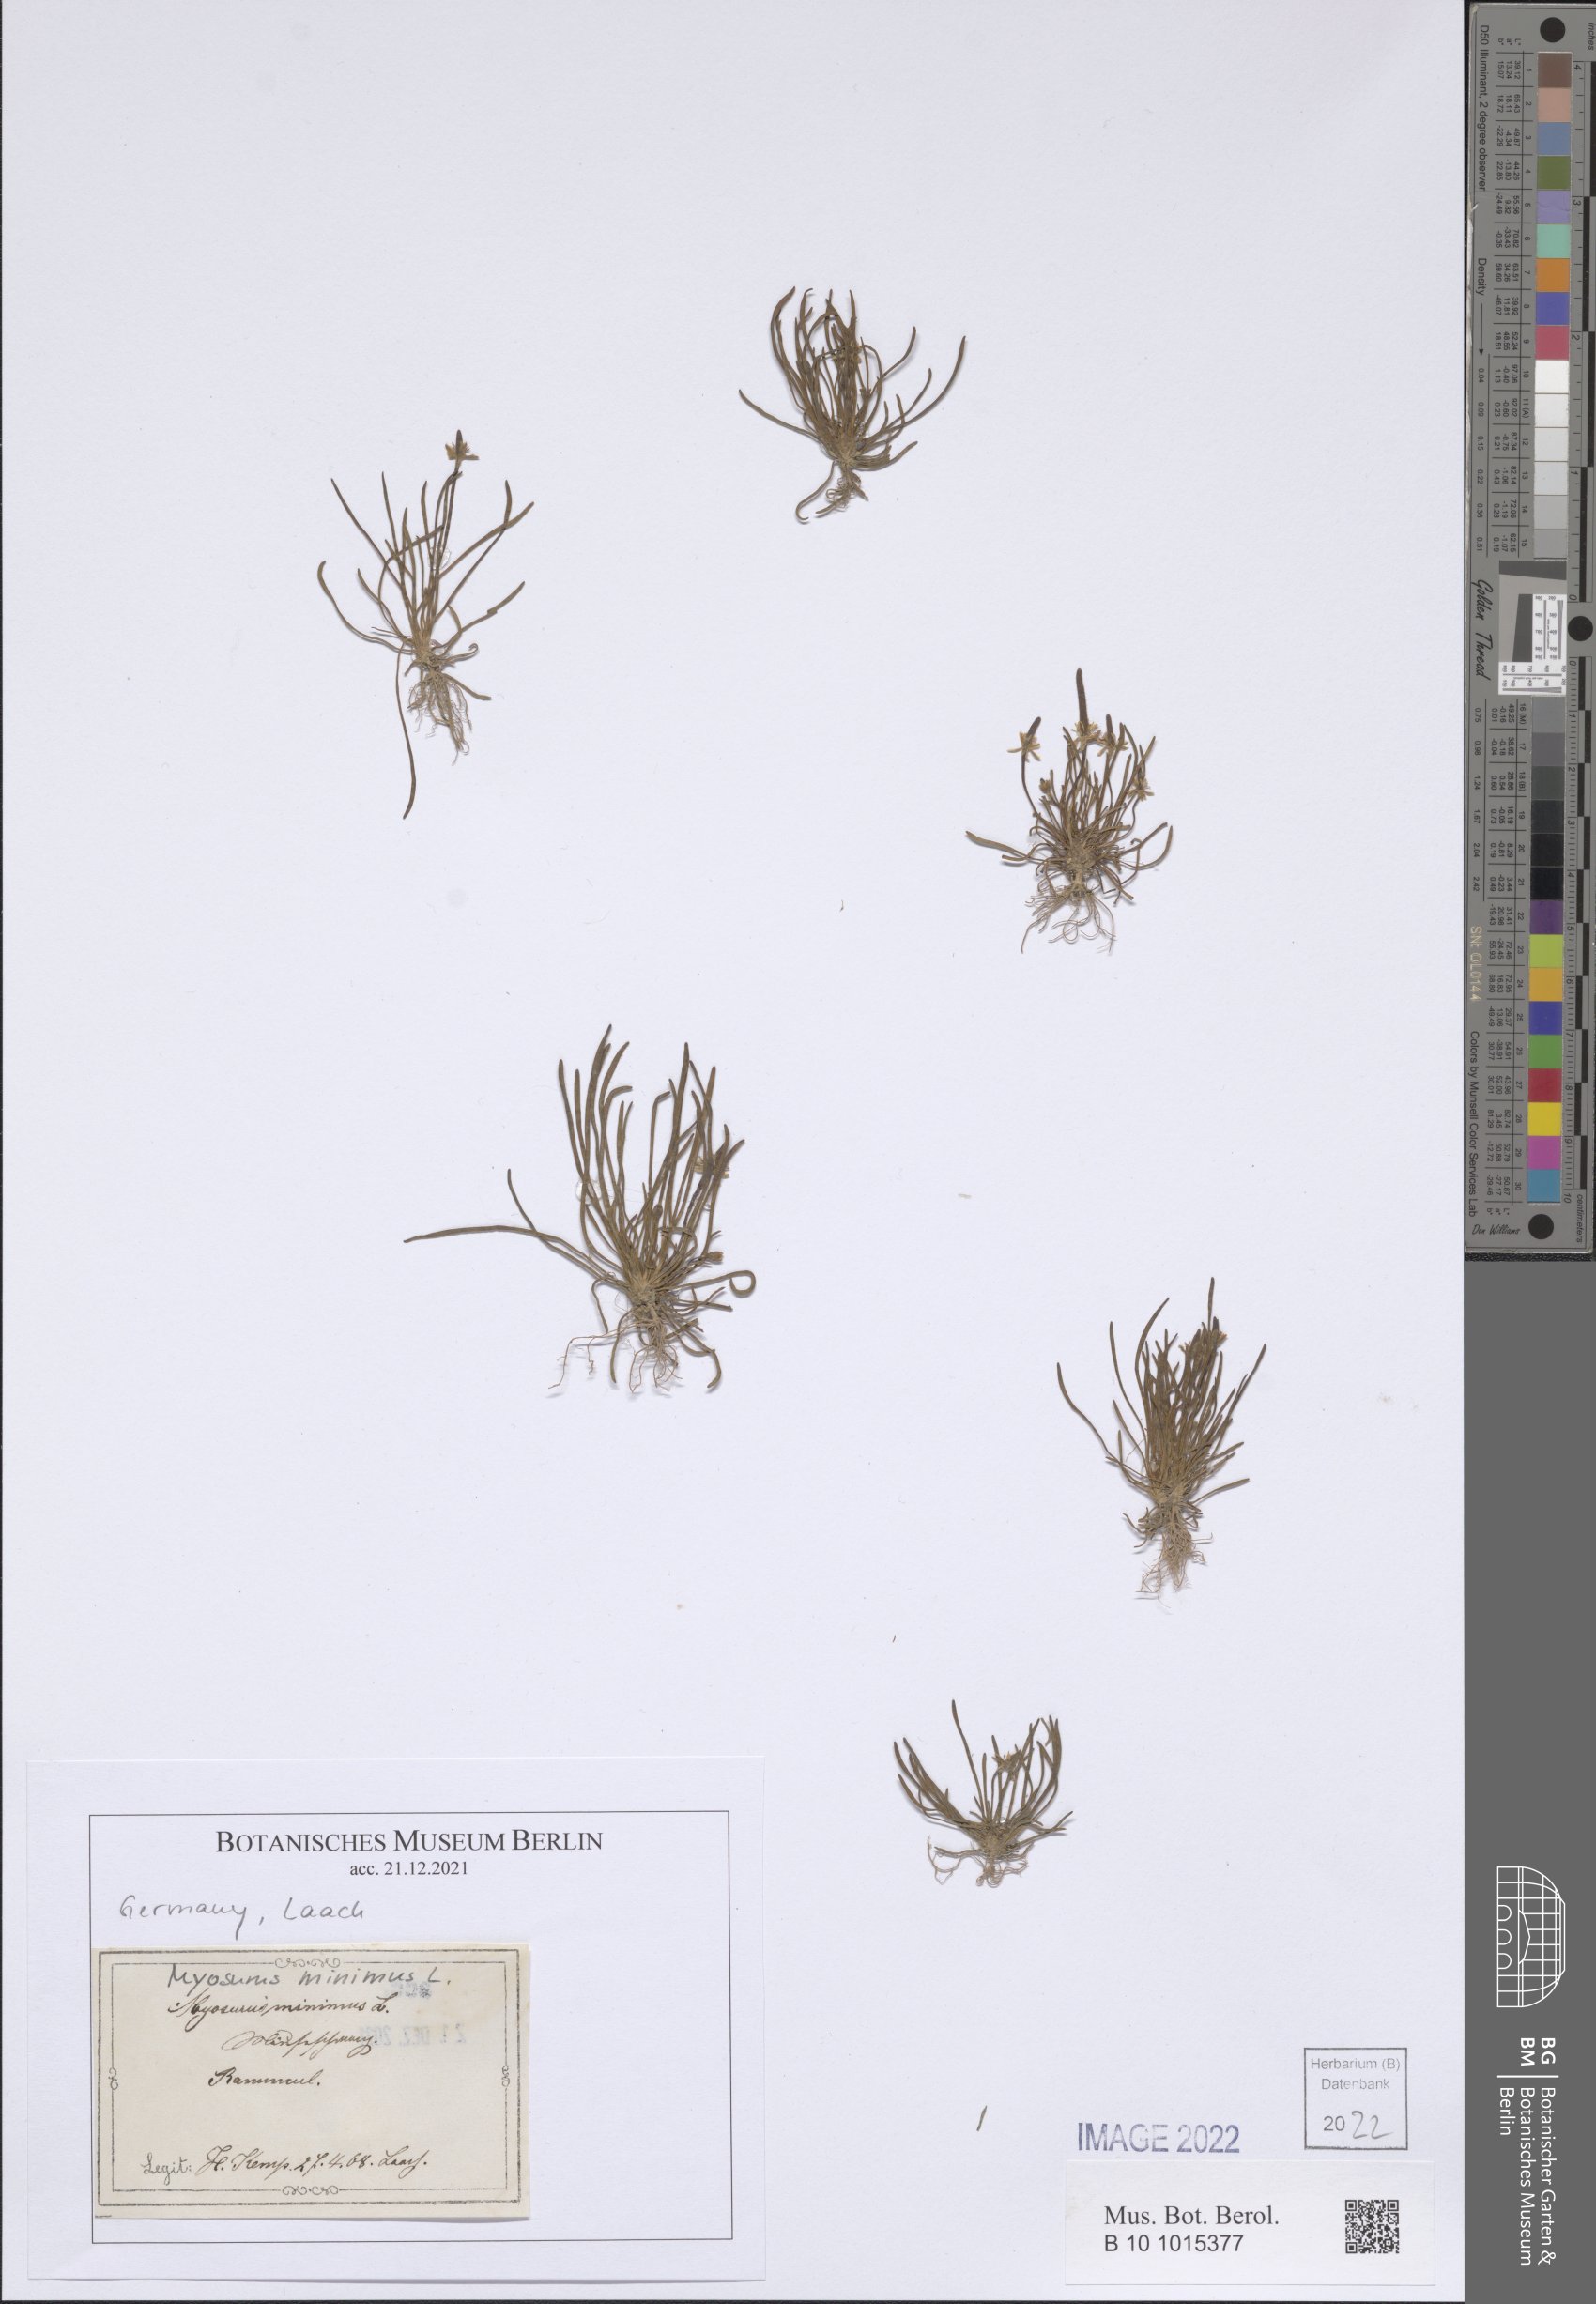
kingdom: Plantae
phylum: Tracheophyta
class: Magnoliopsida
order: Ranunculales
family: Ranunculaceae
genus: Myosurus
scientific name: Myosurus minimus
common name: Mousetail
